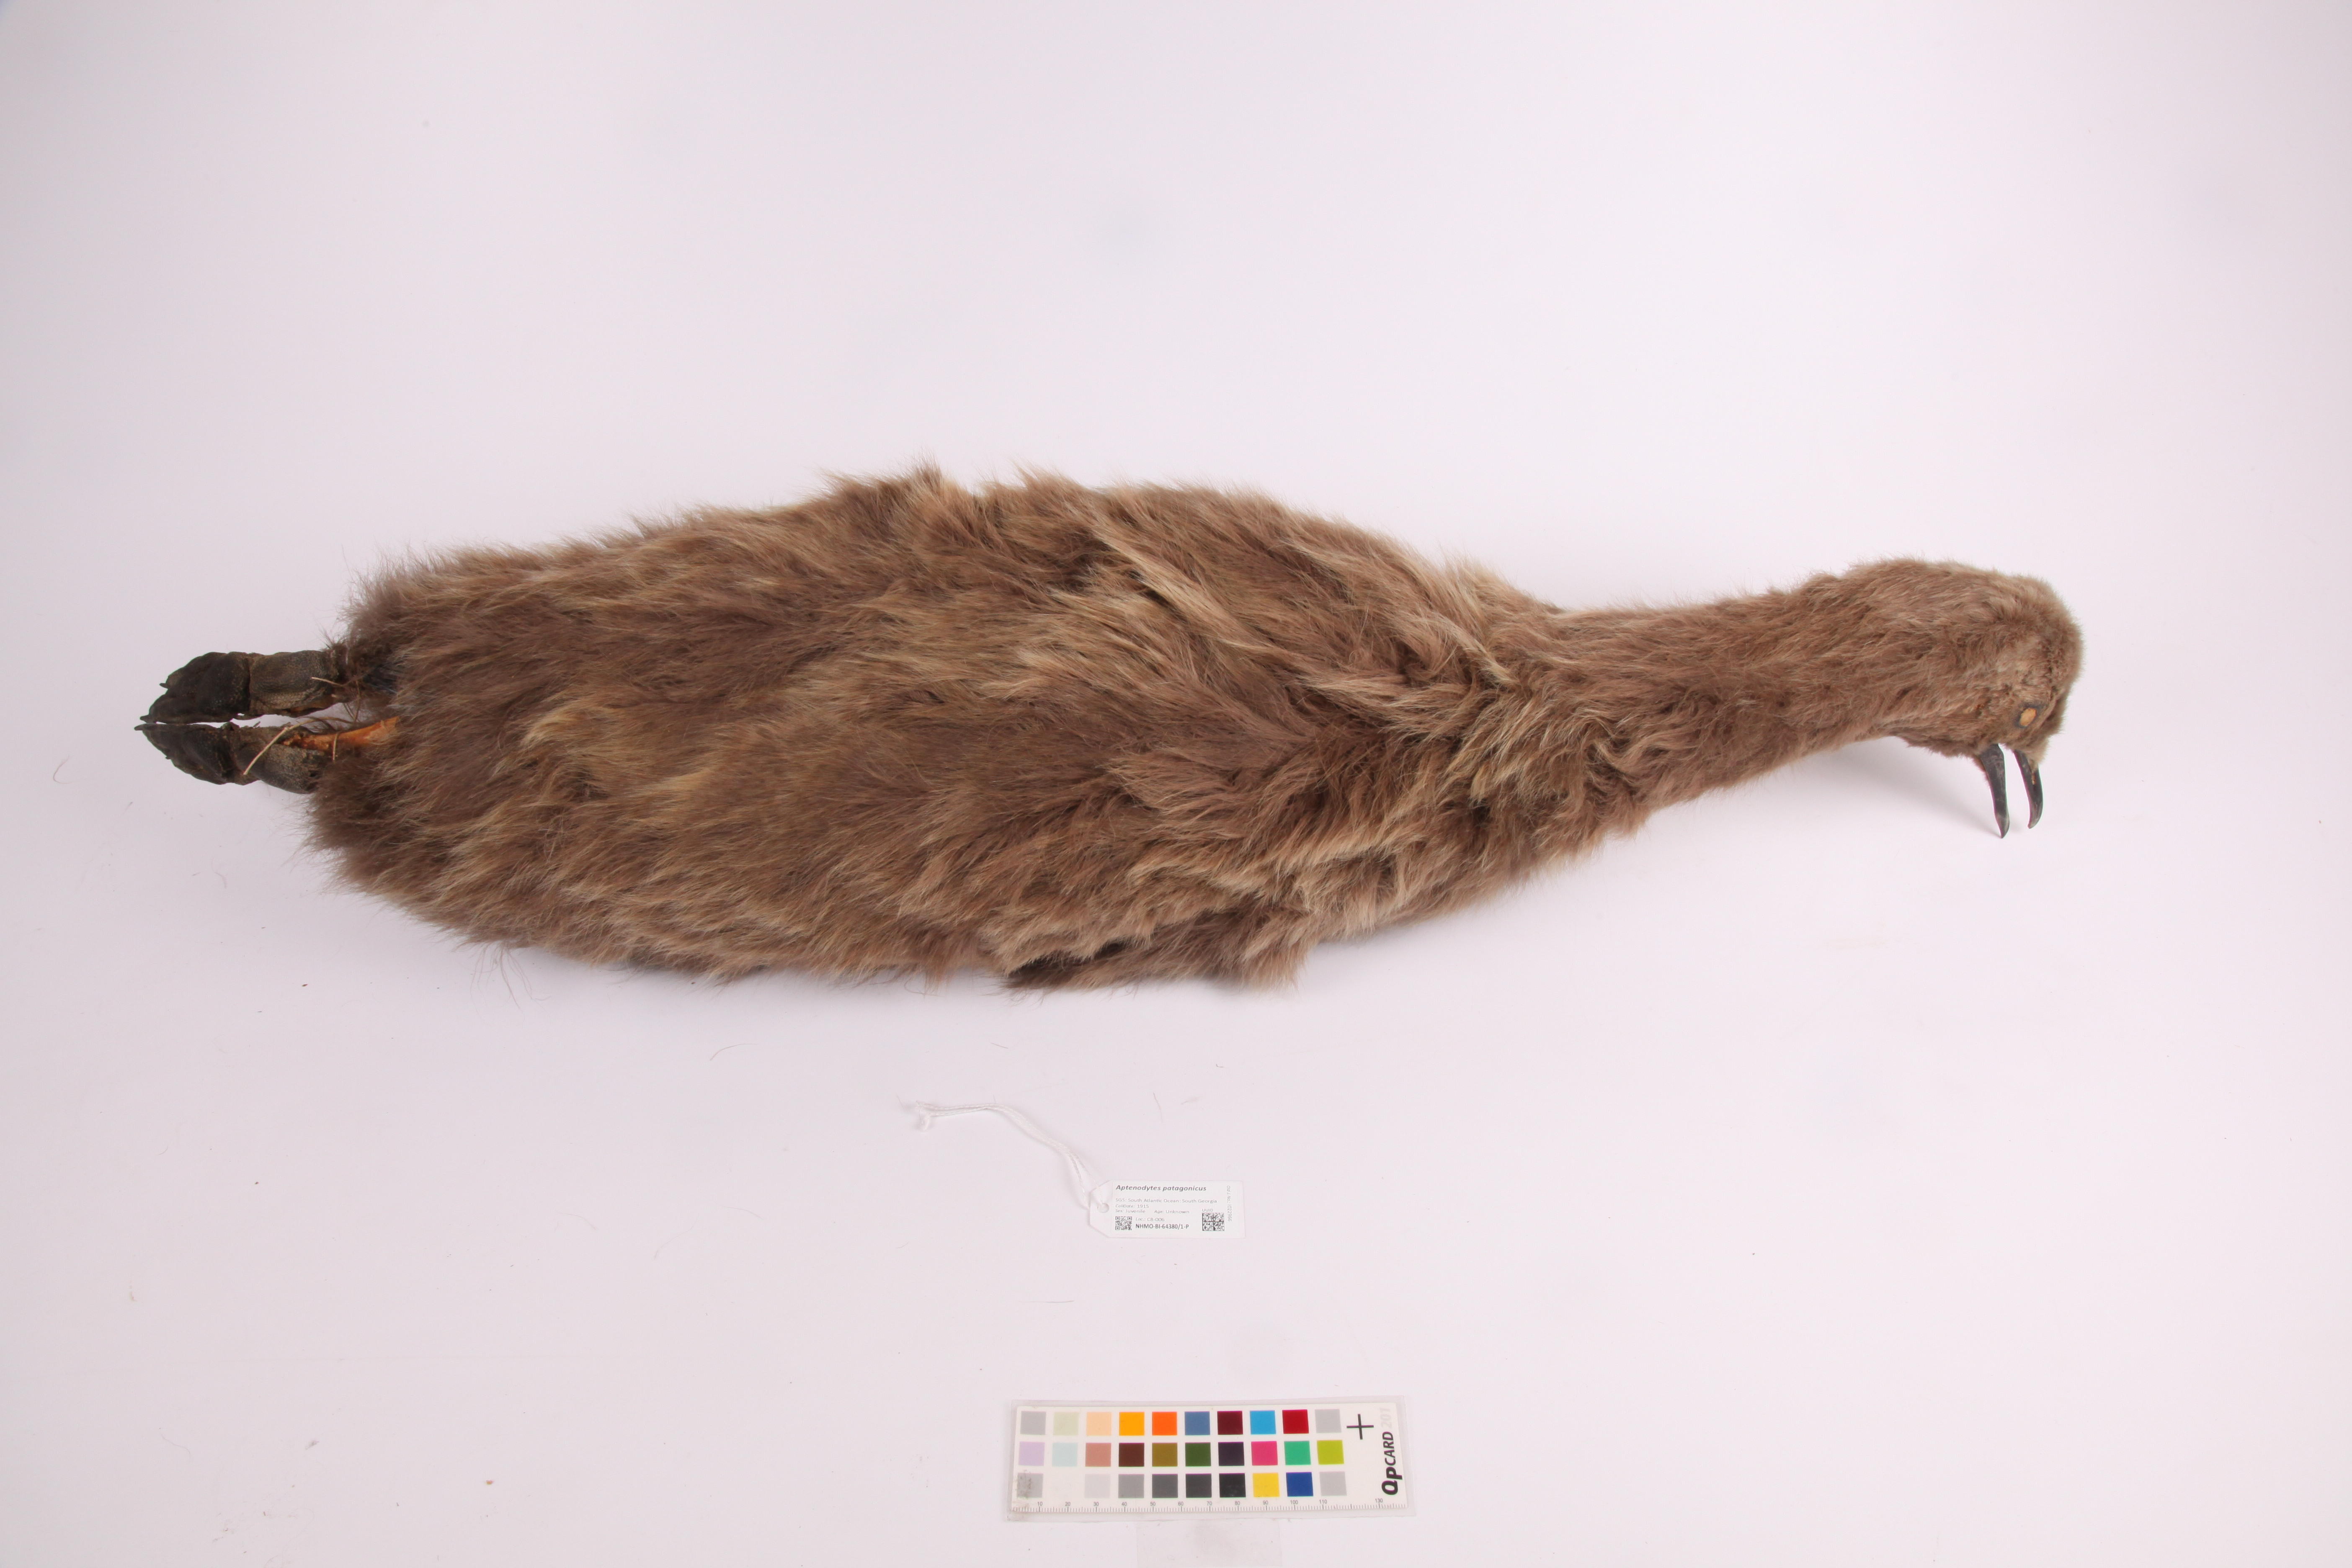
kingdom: Animalia
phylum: Chordata
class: Aves
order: Sphenisciformes
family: Spheniscidae
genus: Aptenodytes
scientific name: Aptenodytes patagonicus
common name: King penguin
